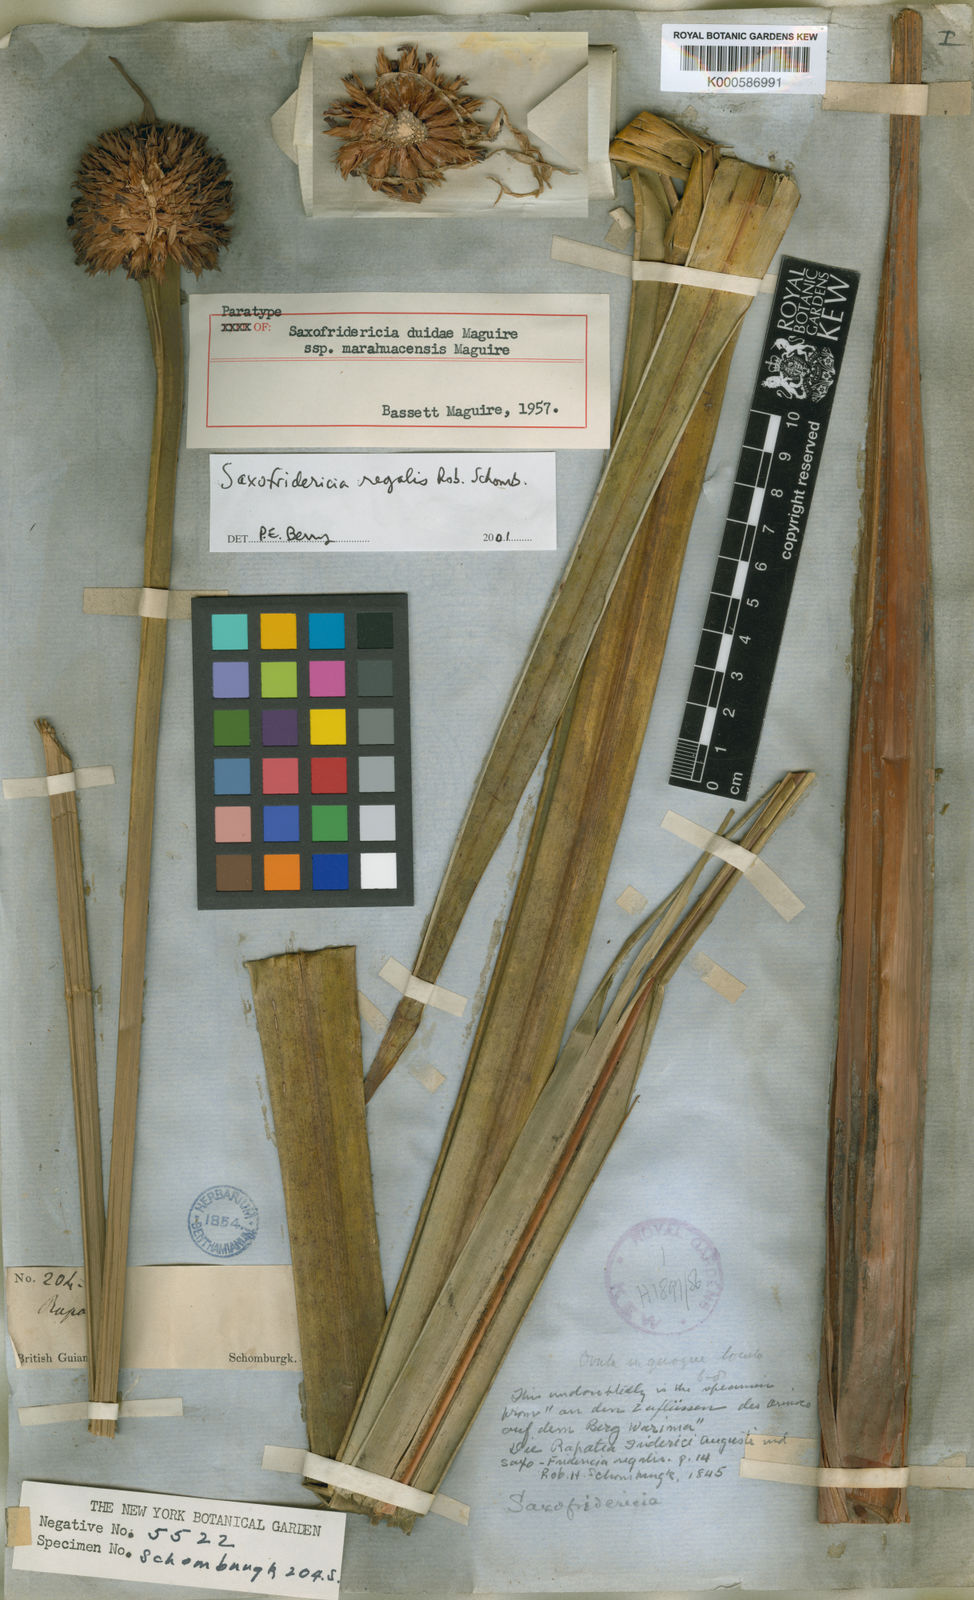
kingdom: Plantae
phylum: Tracheophyta
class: Liliopsida
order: Poales
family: Rapateaceae
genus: Saxofridericia
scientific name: Saxofridericia duidae
